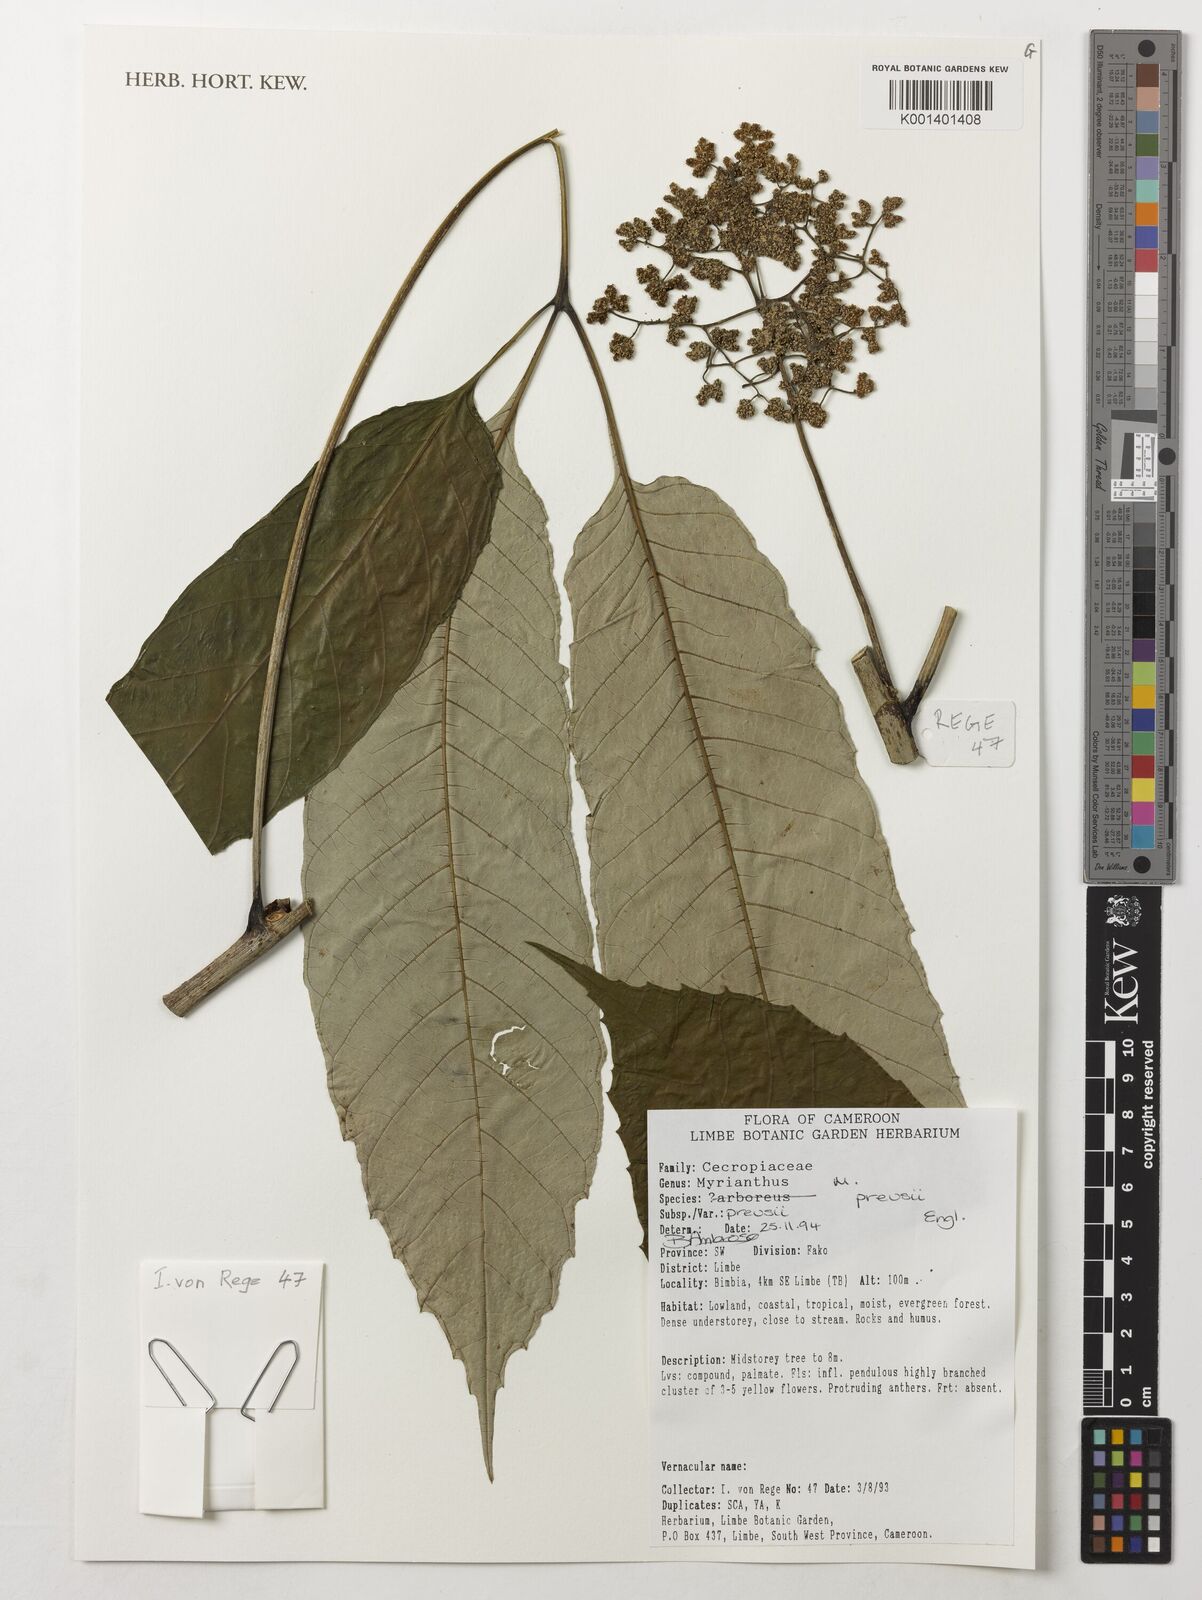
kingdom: Plantae
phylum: Tracheophyta
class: Magnoliopsida
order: Rosales
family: Urticaceae
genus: Myrianthus
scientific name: Myrianthus preussii
